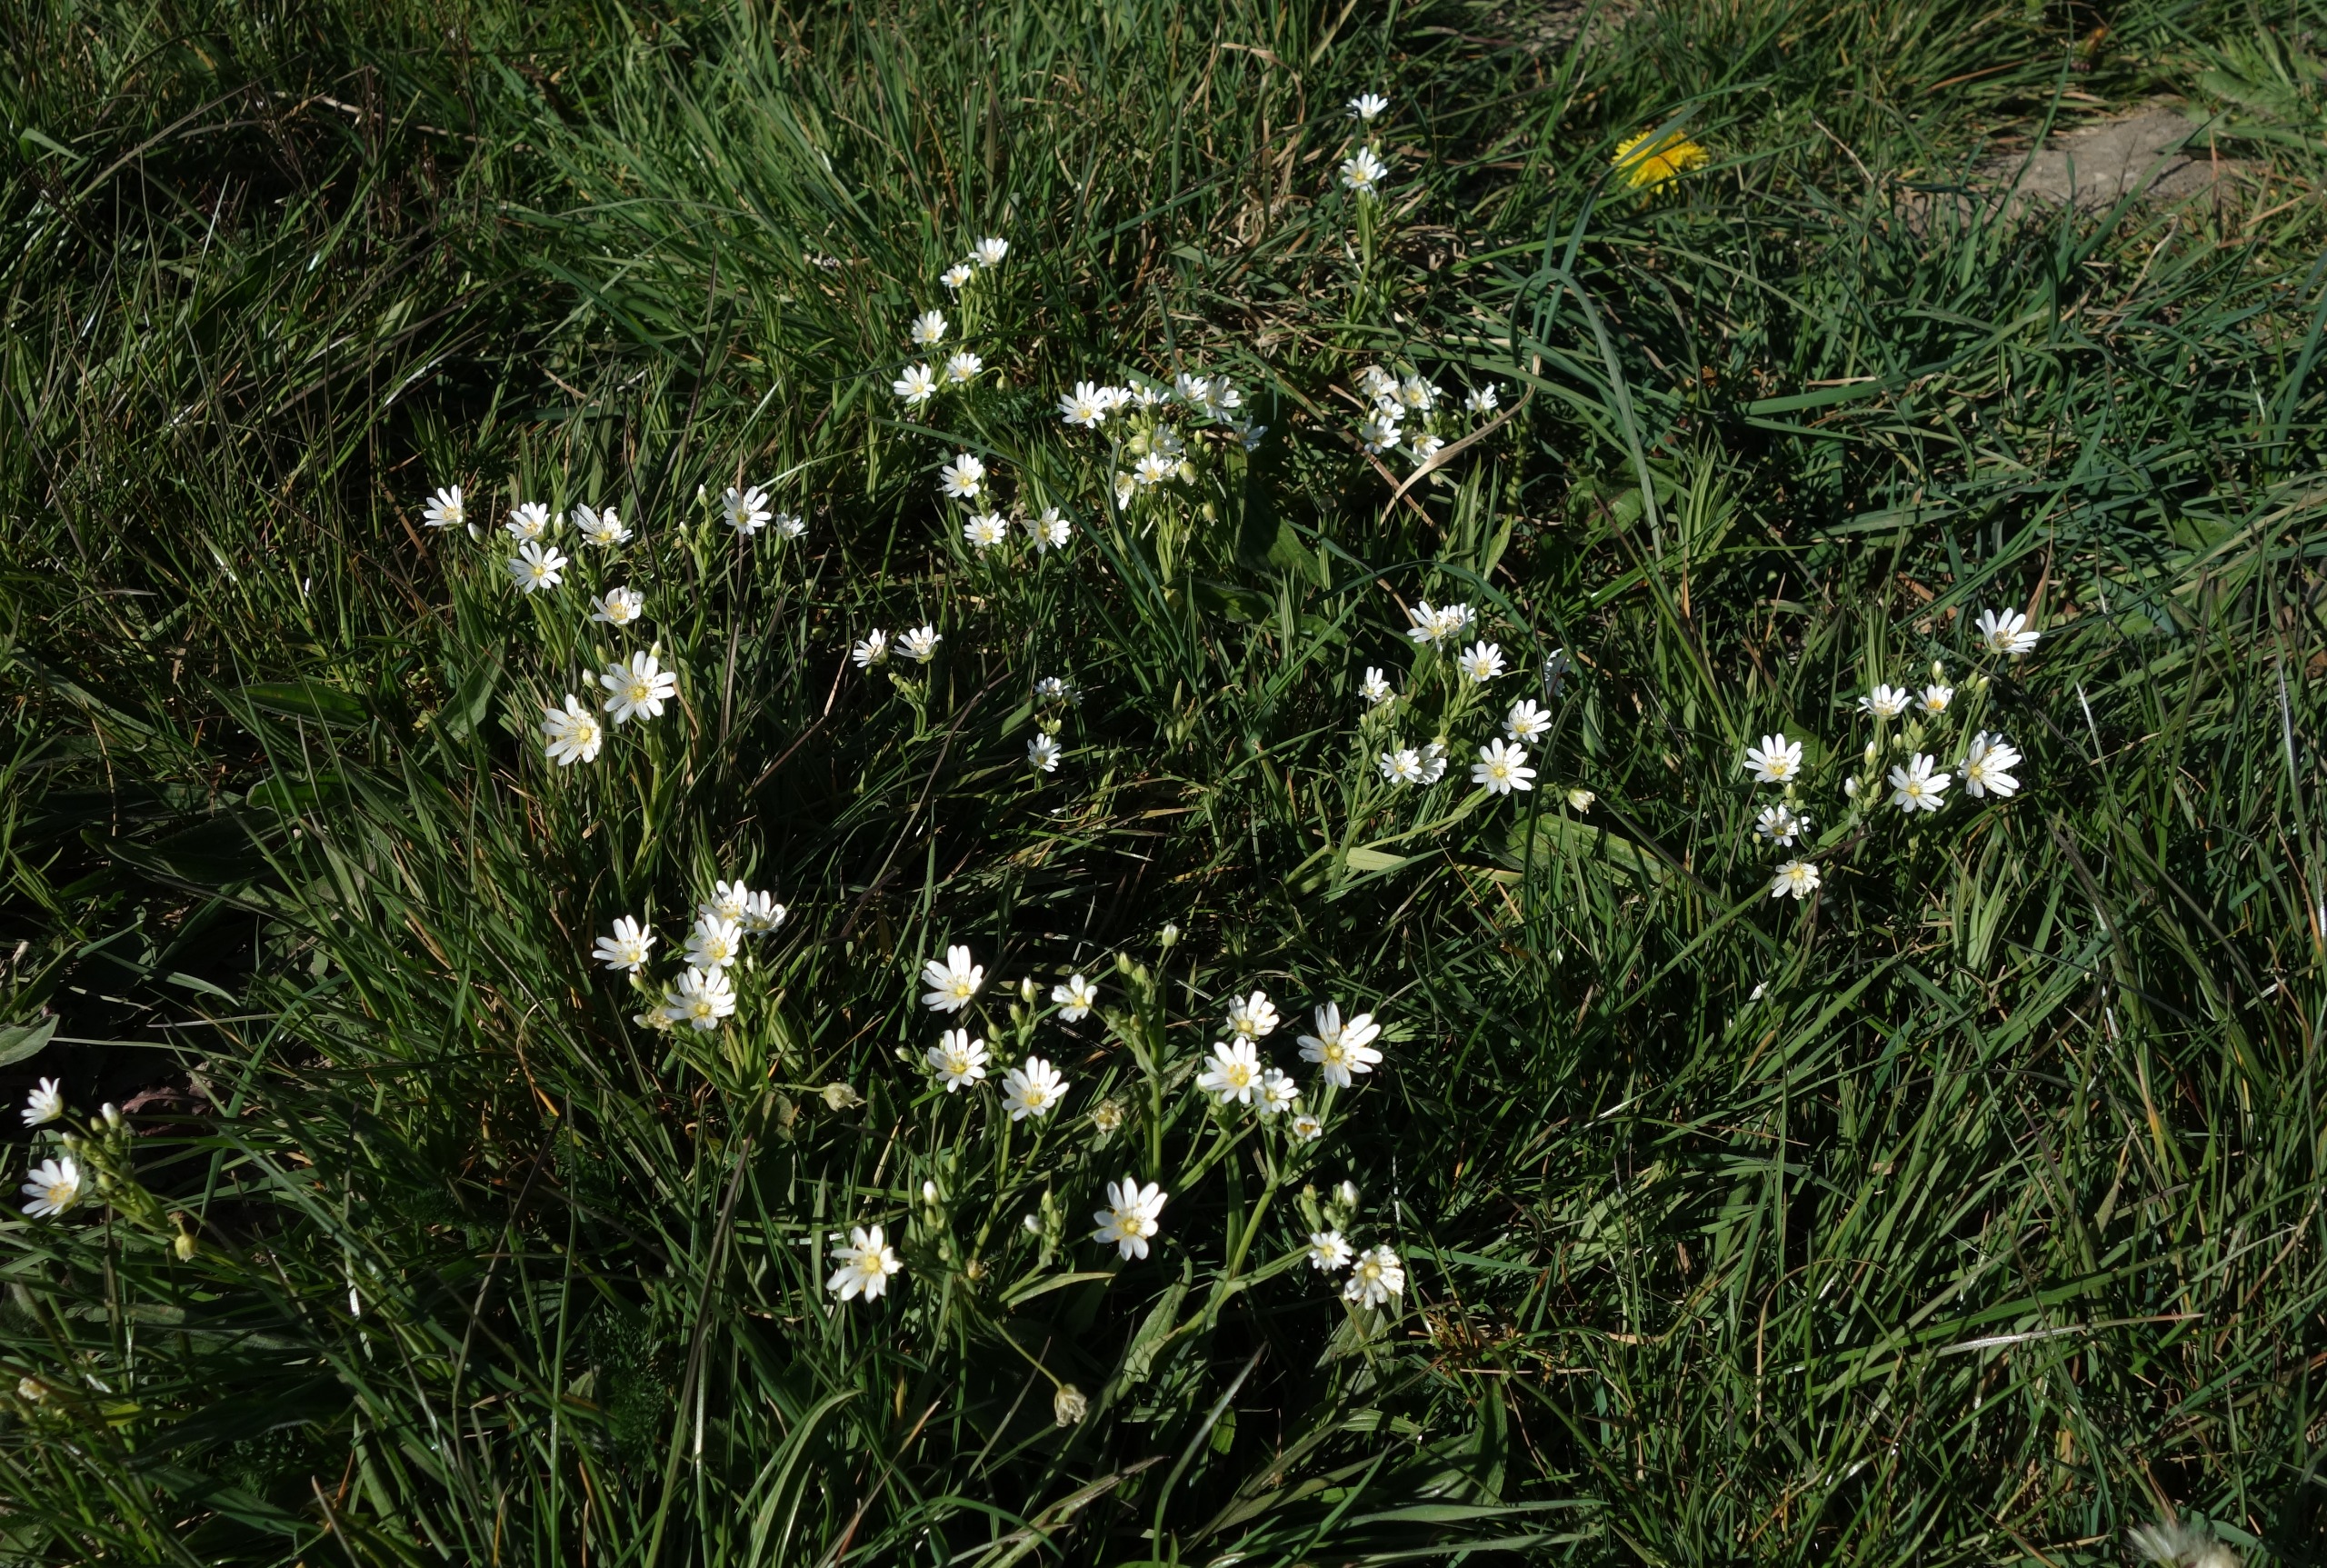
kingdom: Plantae
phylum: Tracheophyta
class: Magnoliopsida
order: Caryophyllales
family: Caryophyllaceae
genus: Rabelera
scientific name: Rabelera holostea
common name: Stor fladstjerne
